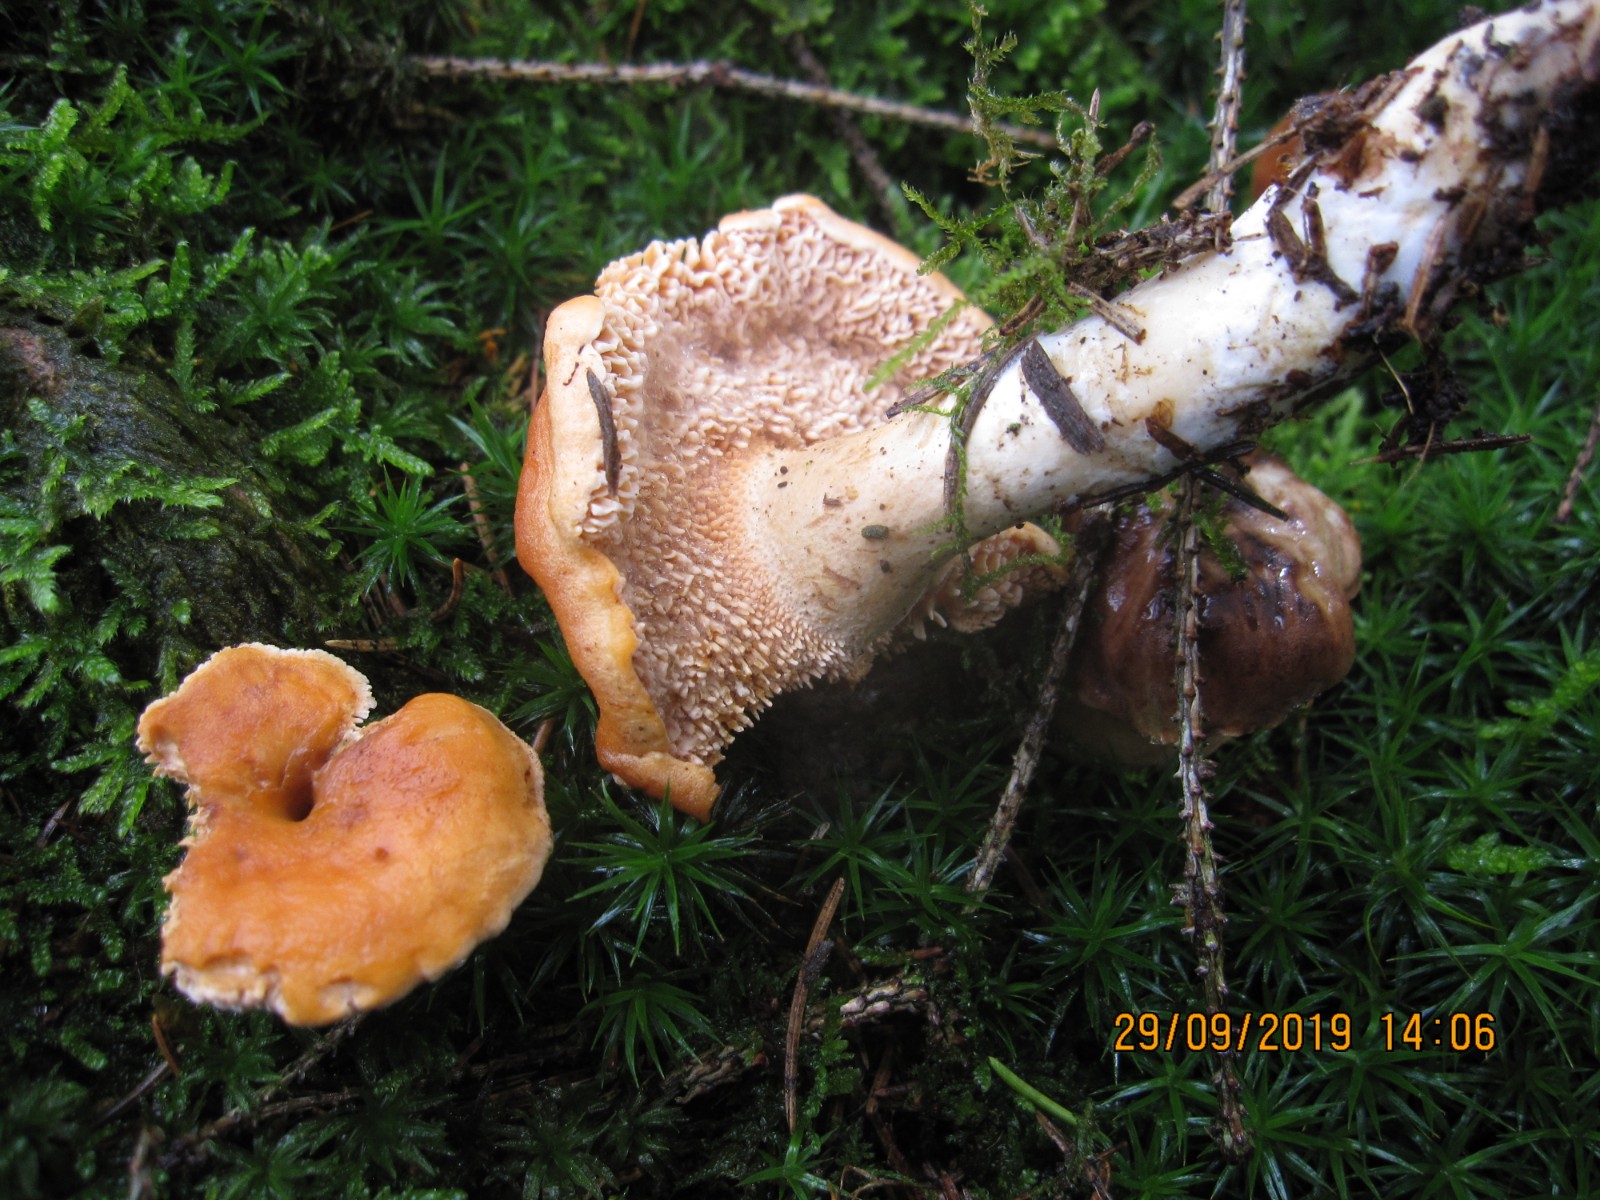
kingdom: Fungi
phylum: Basidiomycota
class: Agaricomycetes
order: Cantharellales
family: Hydnaceae
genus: Hydnum
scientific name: Hydnum
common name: pigsvamp
